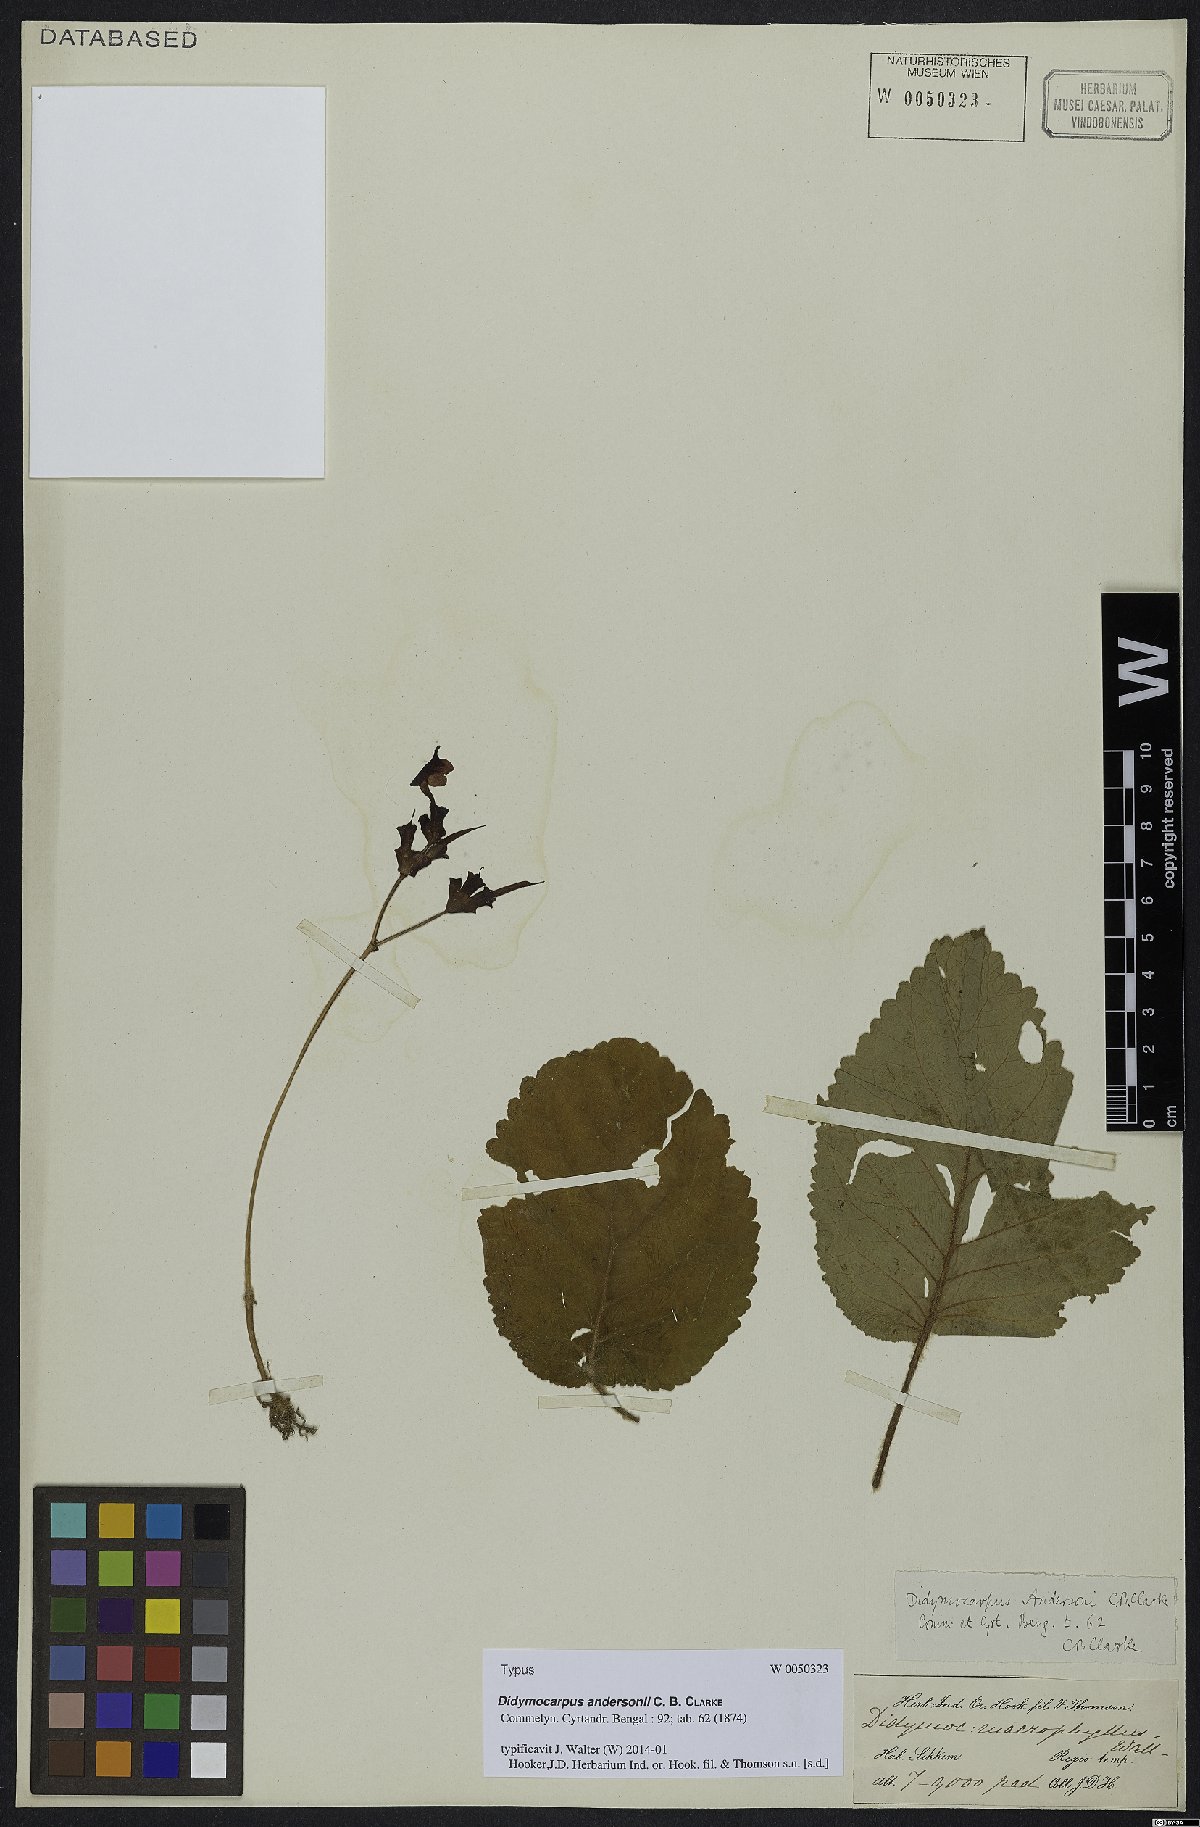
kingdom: Plantae
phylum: Tracheophyta
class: Magnoliopsida
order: Lamiales
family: Gesneriaceae
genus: Didymocarpus
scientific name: Didymocarpus andersonii
